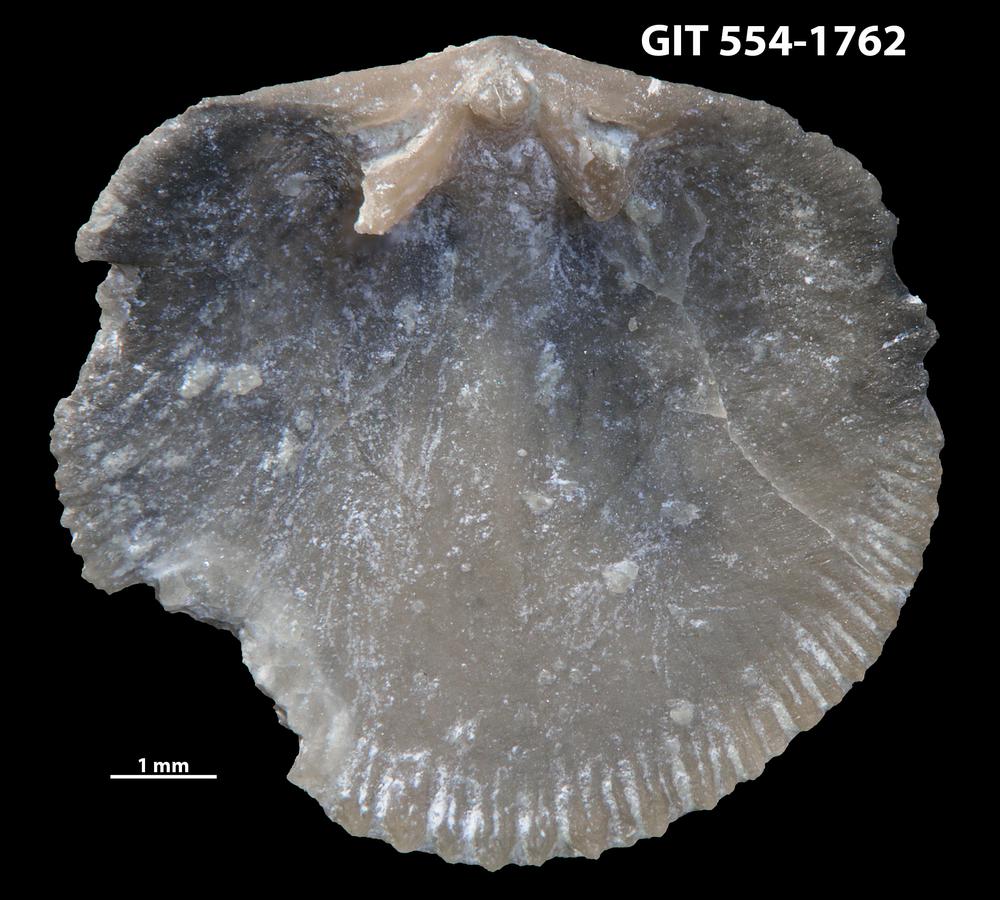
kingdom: Animalia
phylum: Brachiopoda
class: Rhynchonellata
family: Dalmanellidae
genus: Dalmanella
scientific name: Dalmanella cyclica
